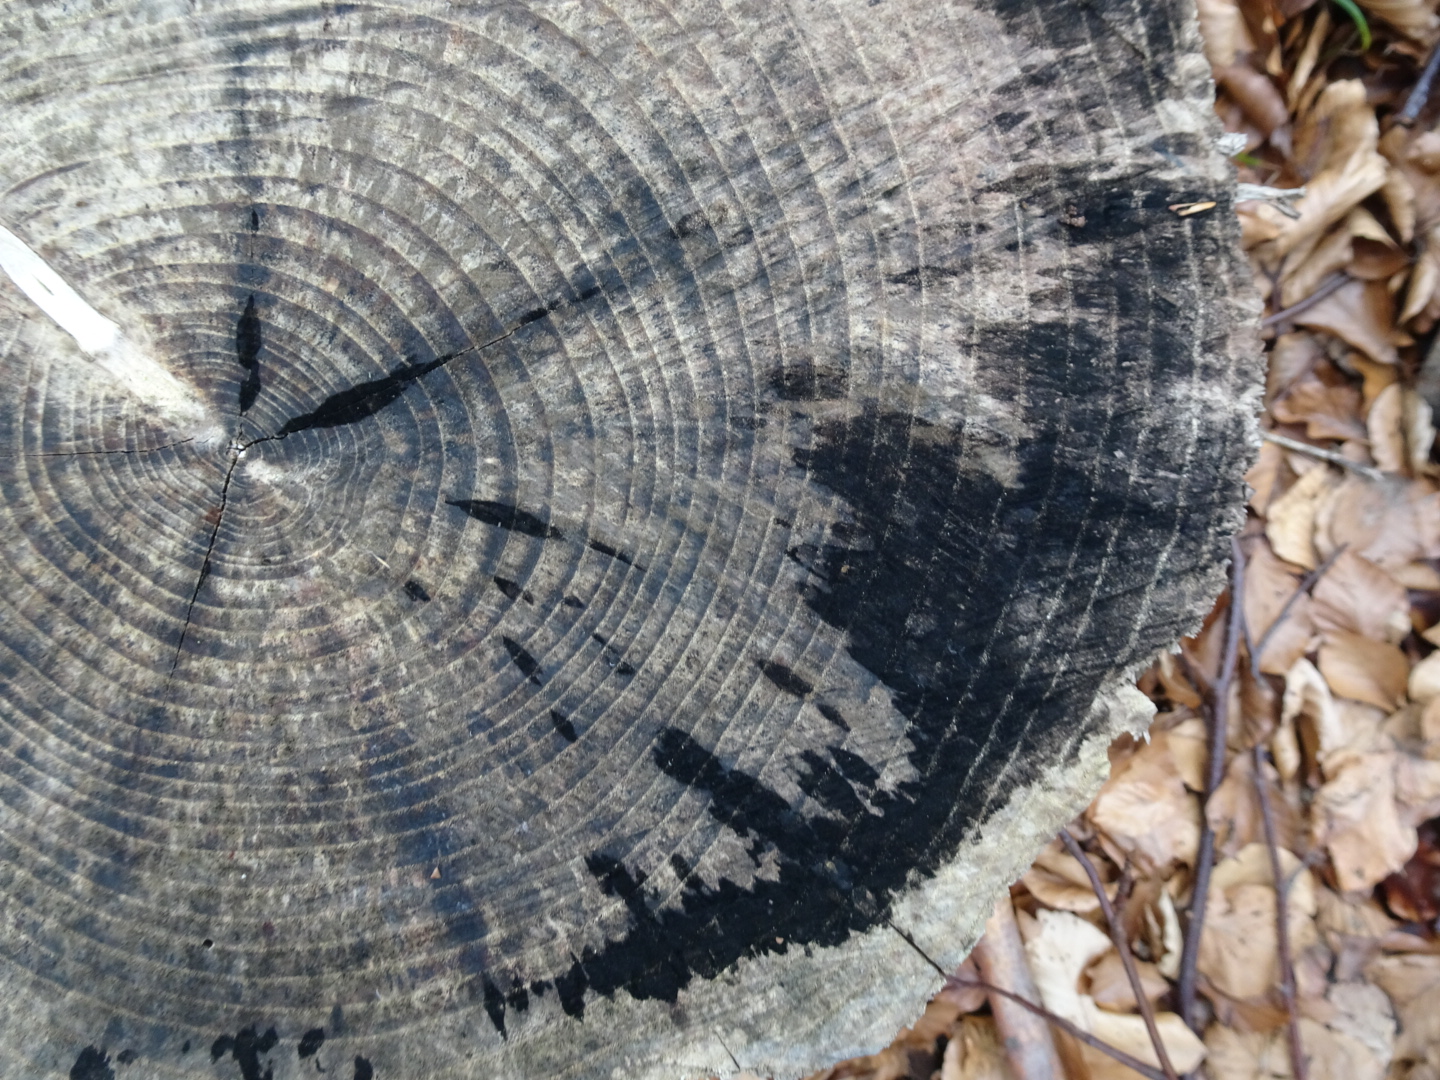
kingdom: Fungi
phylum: Ascomycota
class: Leotiomycetes
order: Helotiales
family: Helotiaceae
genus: Bispora
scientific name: Bispora pallescens
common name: måtte-snitskive
